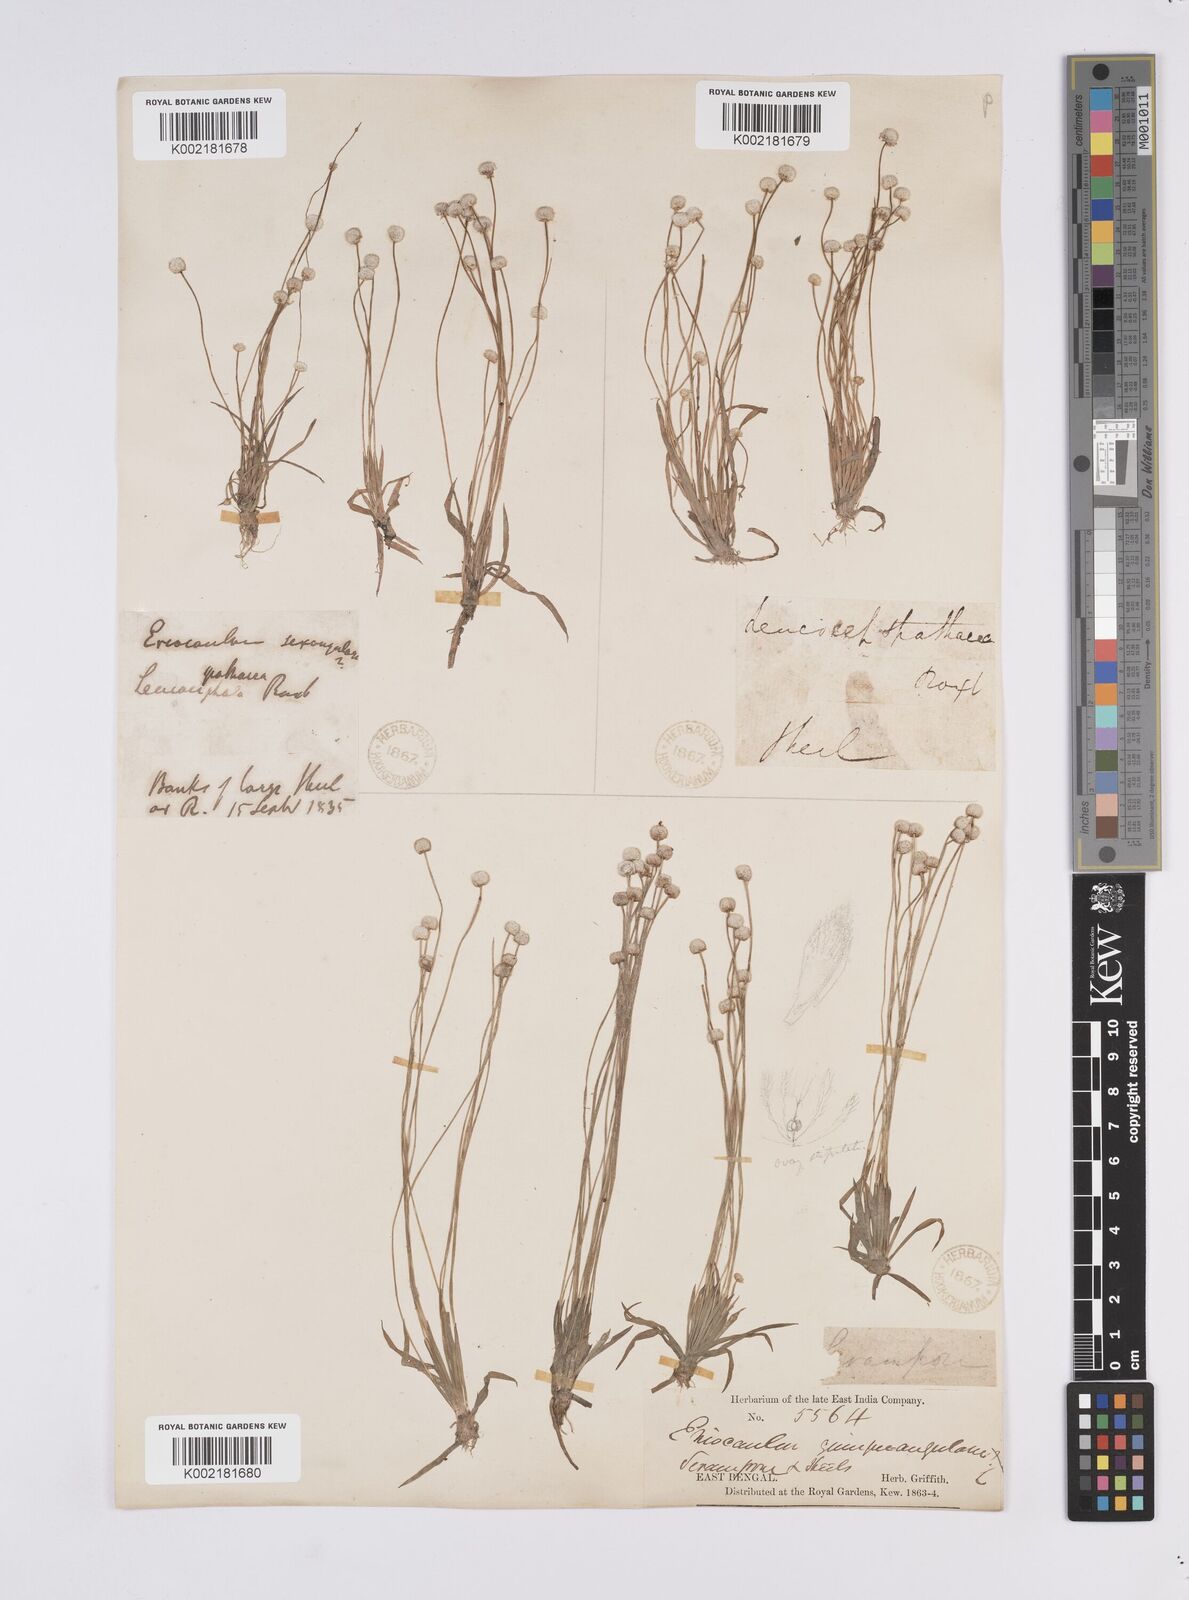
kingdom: Plantae
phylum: Tracheophyta
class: Liliopsida
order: Poales
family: Eriocaulaceae
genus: Eriocaulon
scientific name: Eriocaulon quinquangulare
